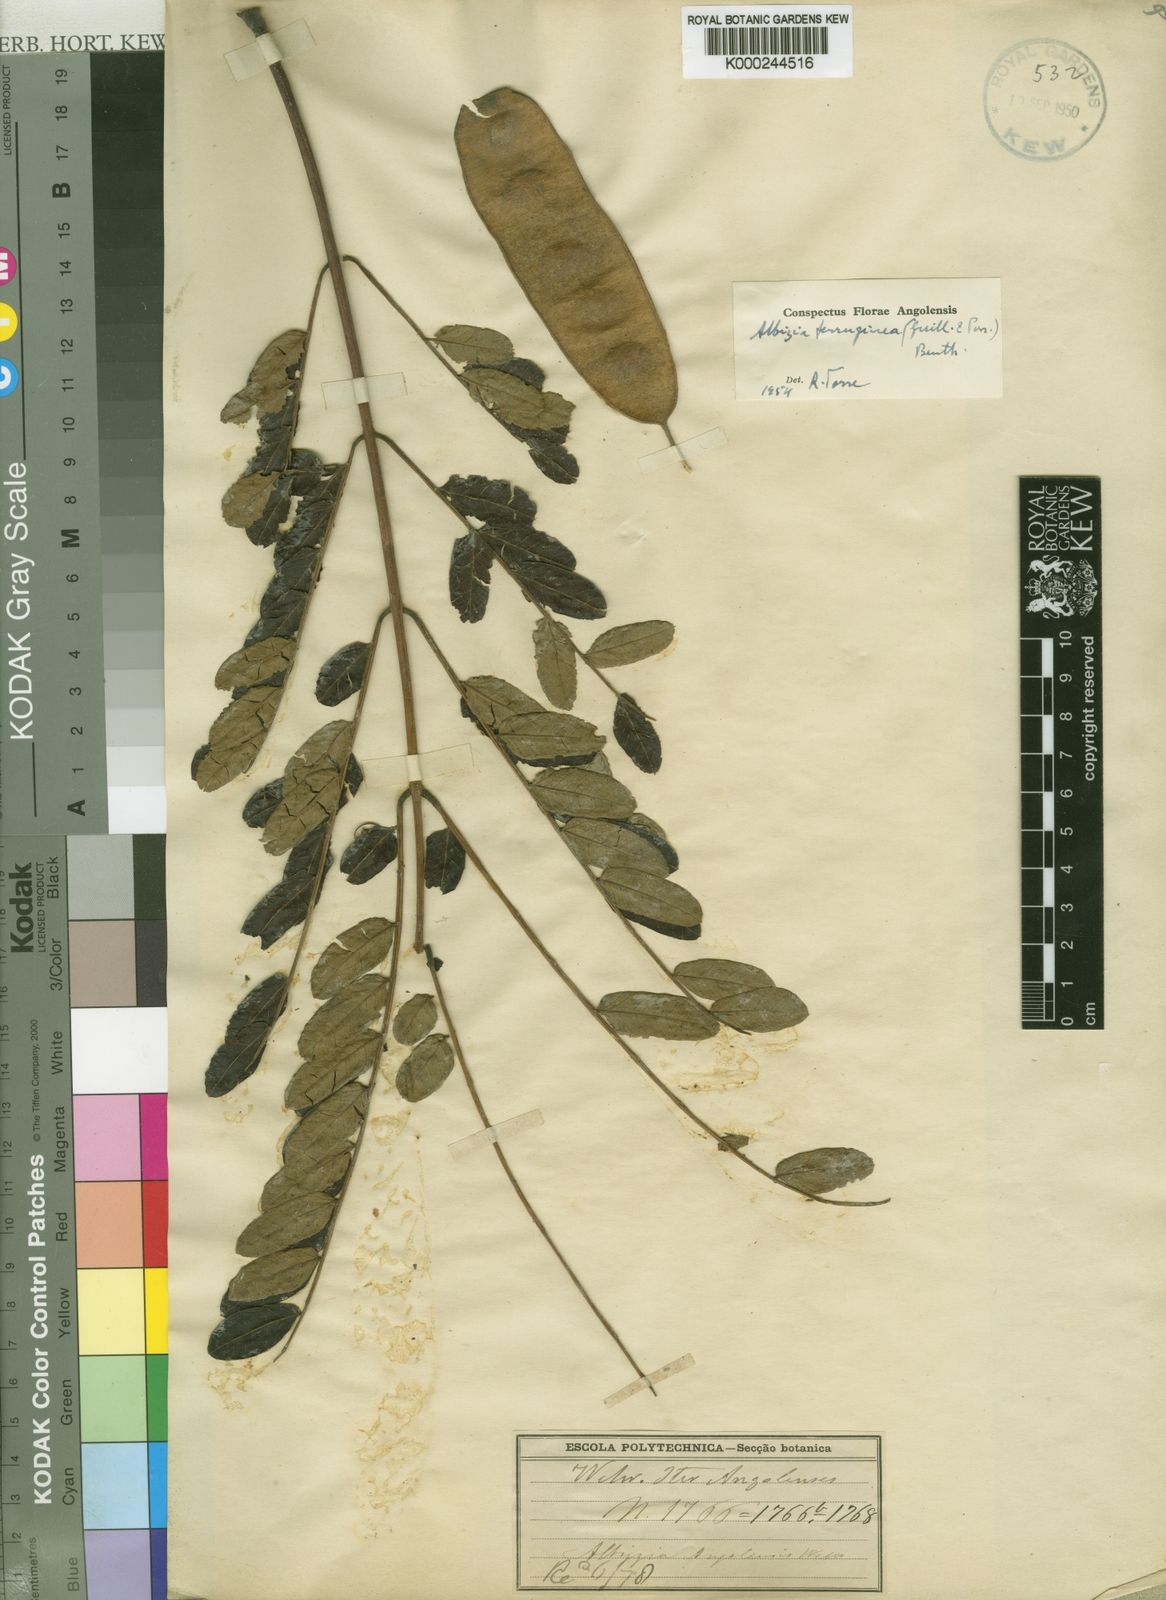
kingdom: Plantae
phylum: Tracheophyta
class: Magnoliopsida
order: Fabales
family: Fabaceae
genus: Albizia
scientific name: Albizia ferruginea
